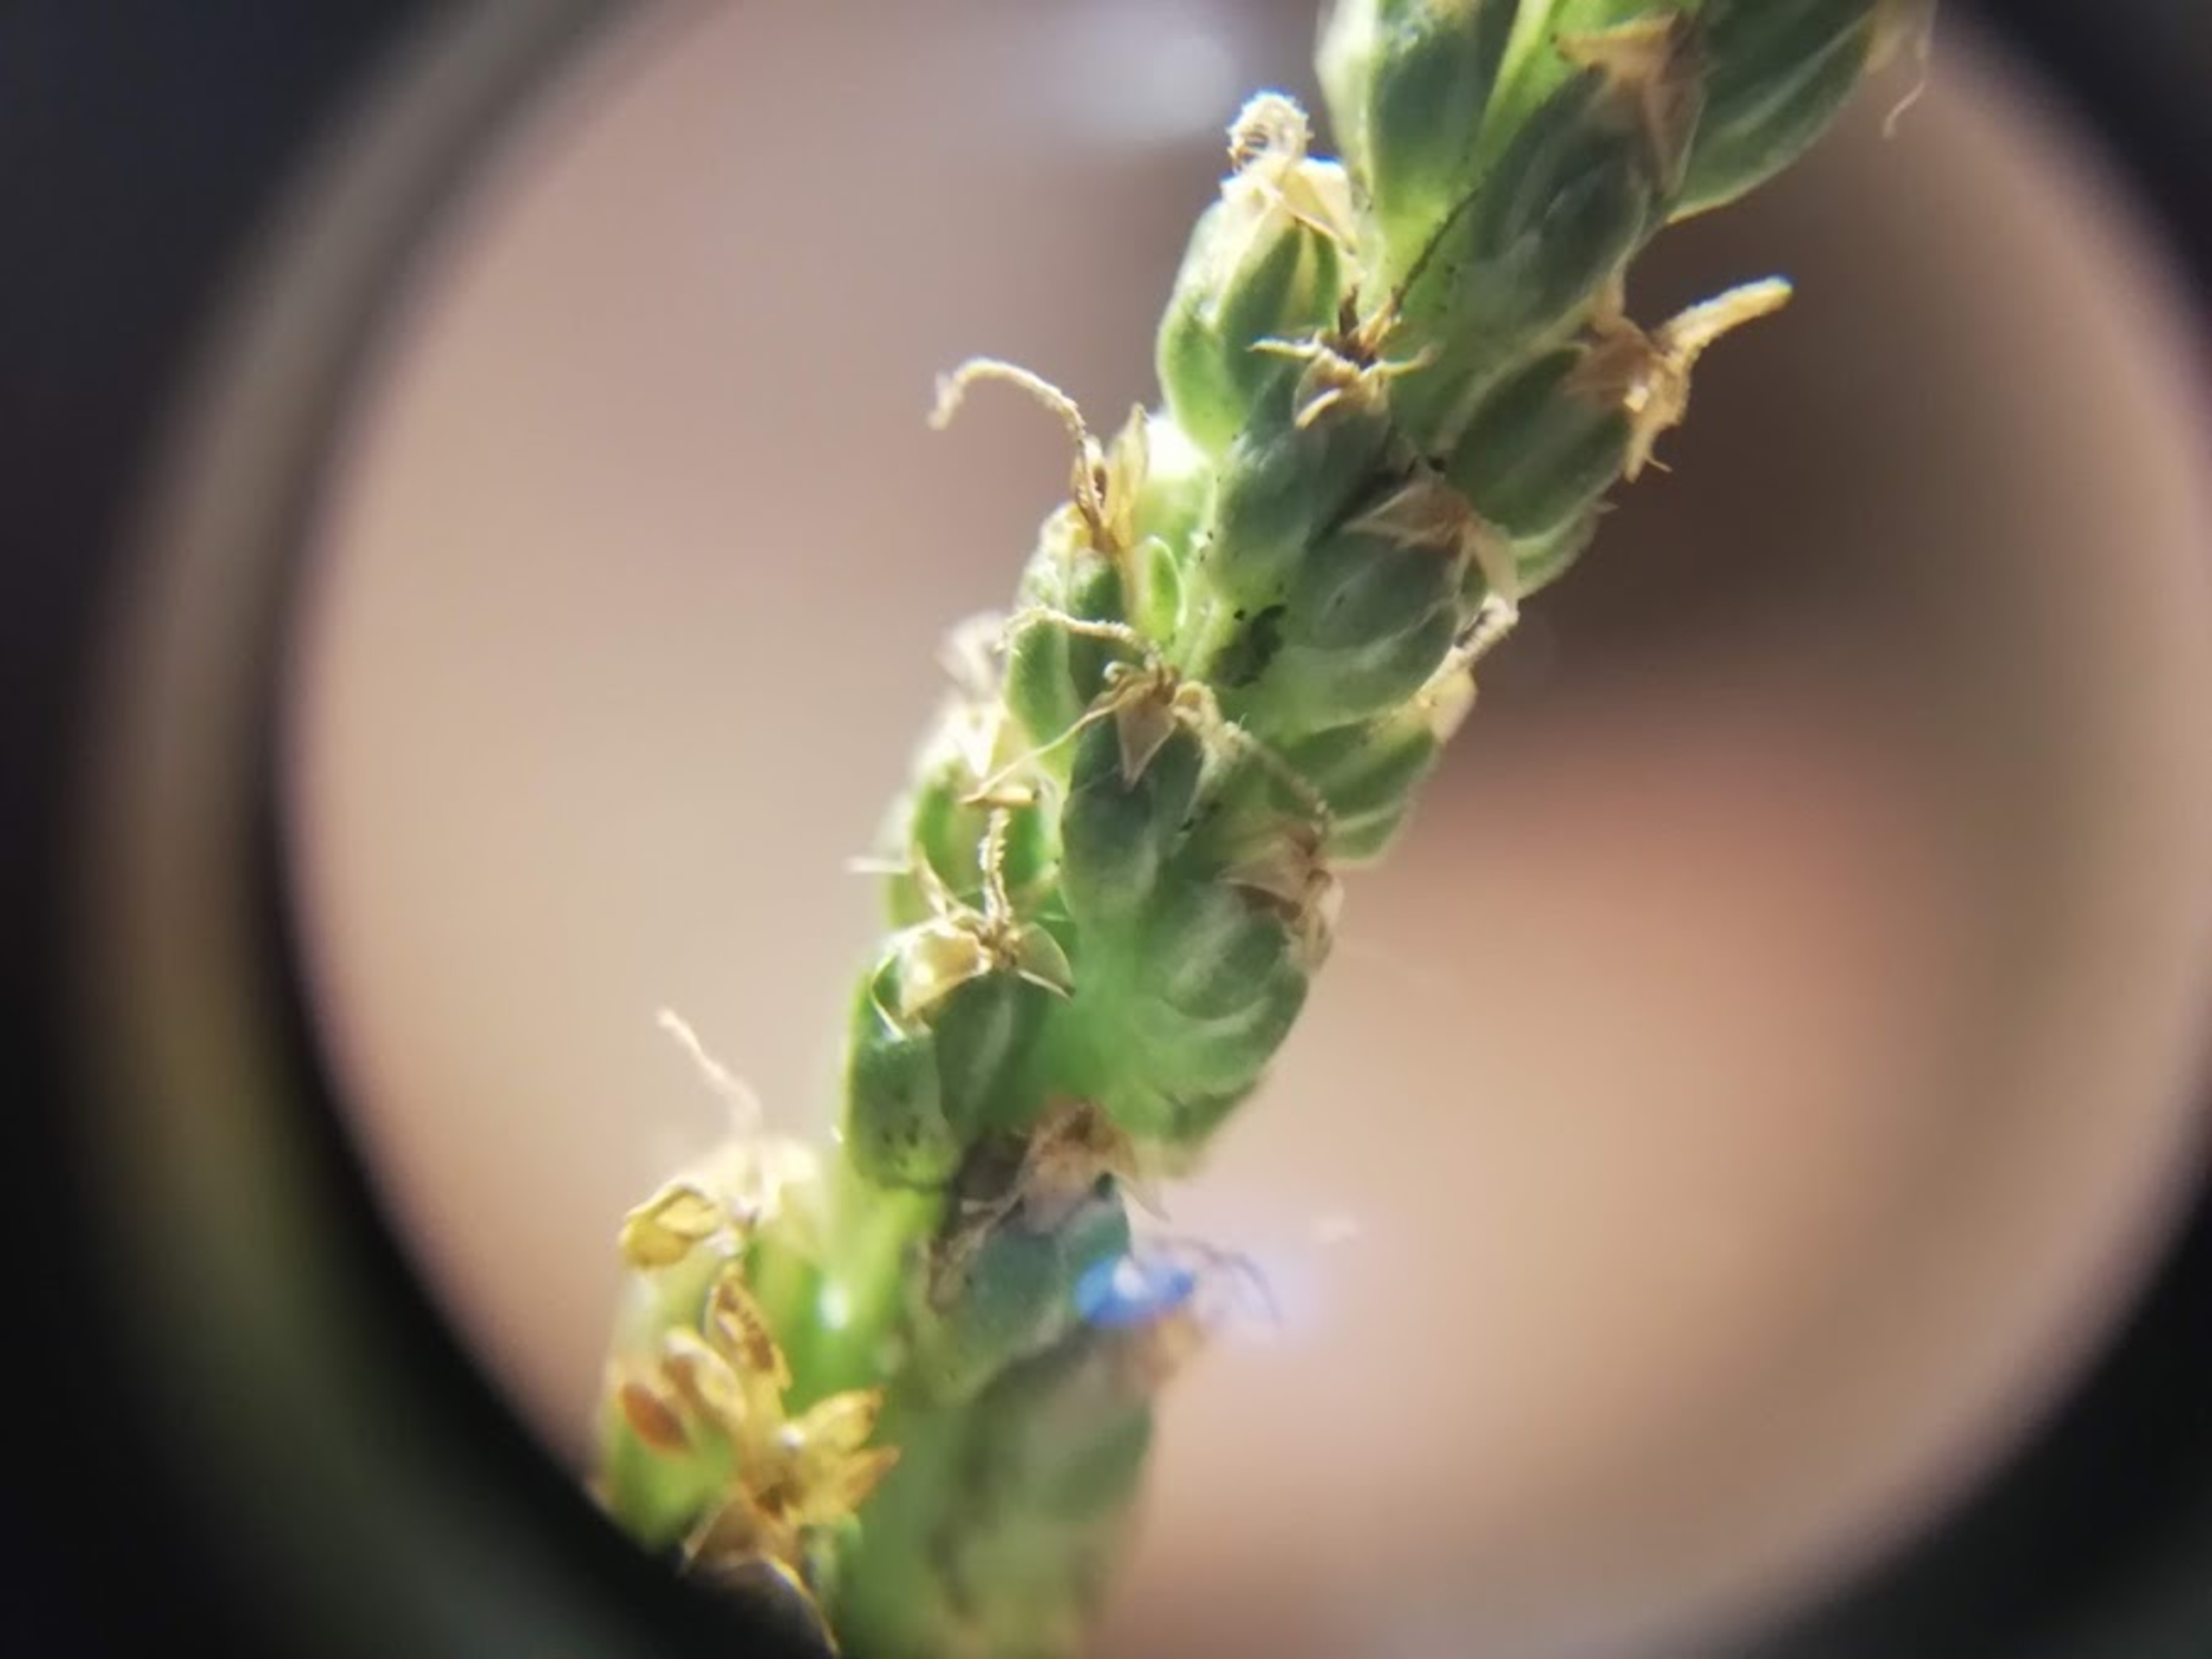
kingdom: Plantae
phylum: Tracheophyta
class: Magnoliopsida
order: Lamiales
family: Plantaginaceae
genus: Plantago
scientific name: Plantago major
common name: Glat vejbred
